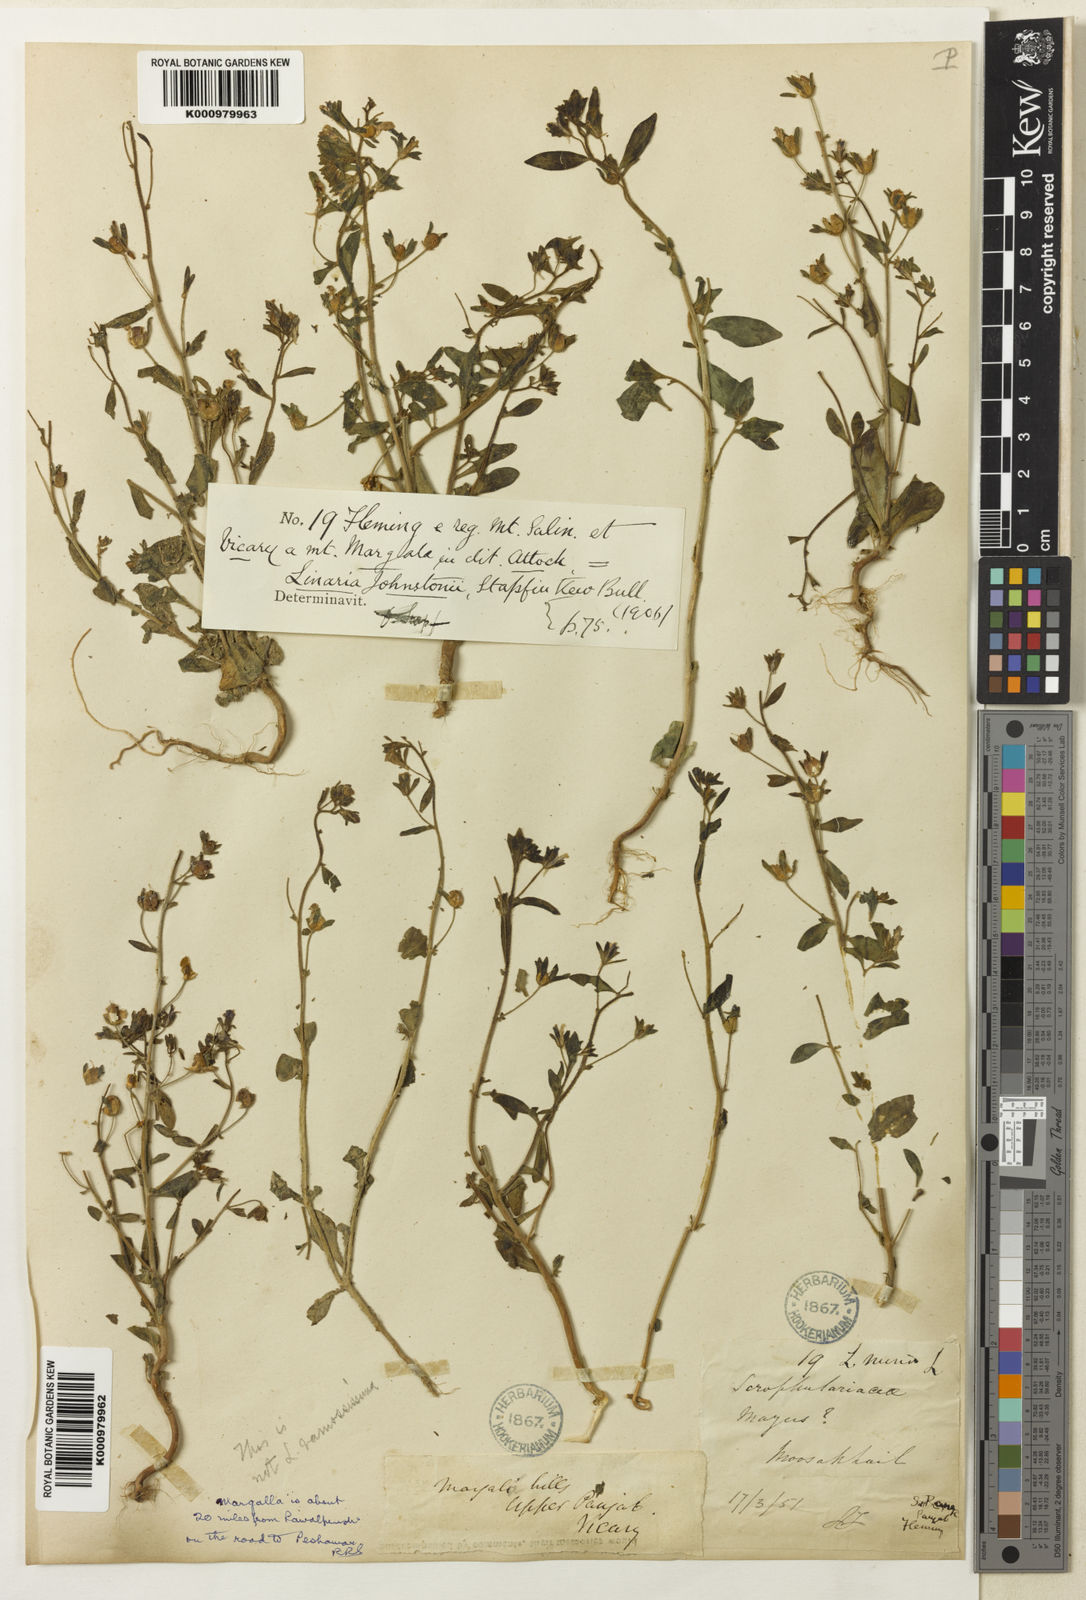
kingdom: Plantae
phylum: Tracheophyta
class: Magnoliopsida
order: Lamiales
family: Plantaginaceae
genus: Chaenorhinum
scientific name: Chaenorhinum johnstonii
